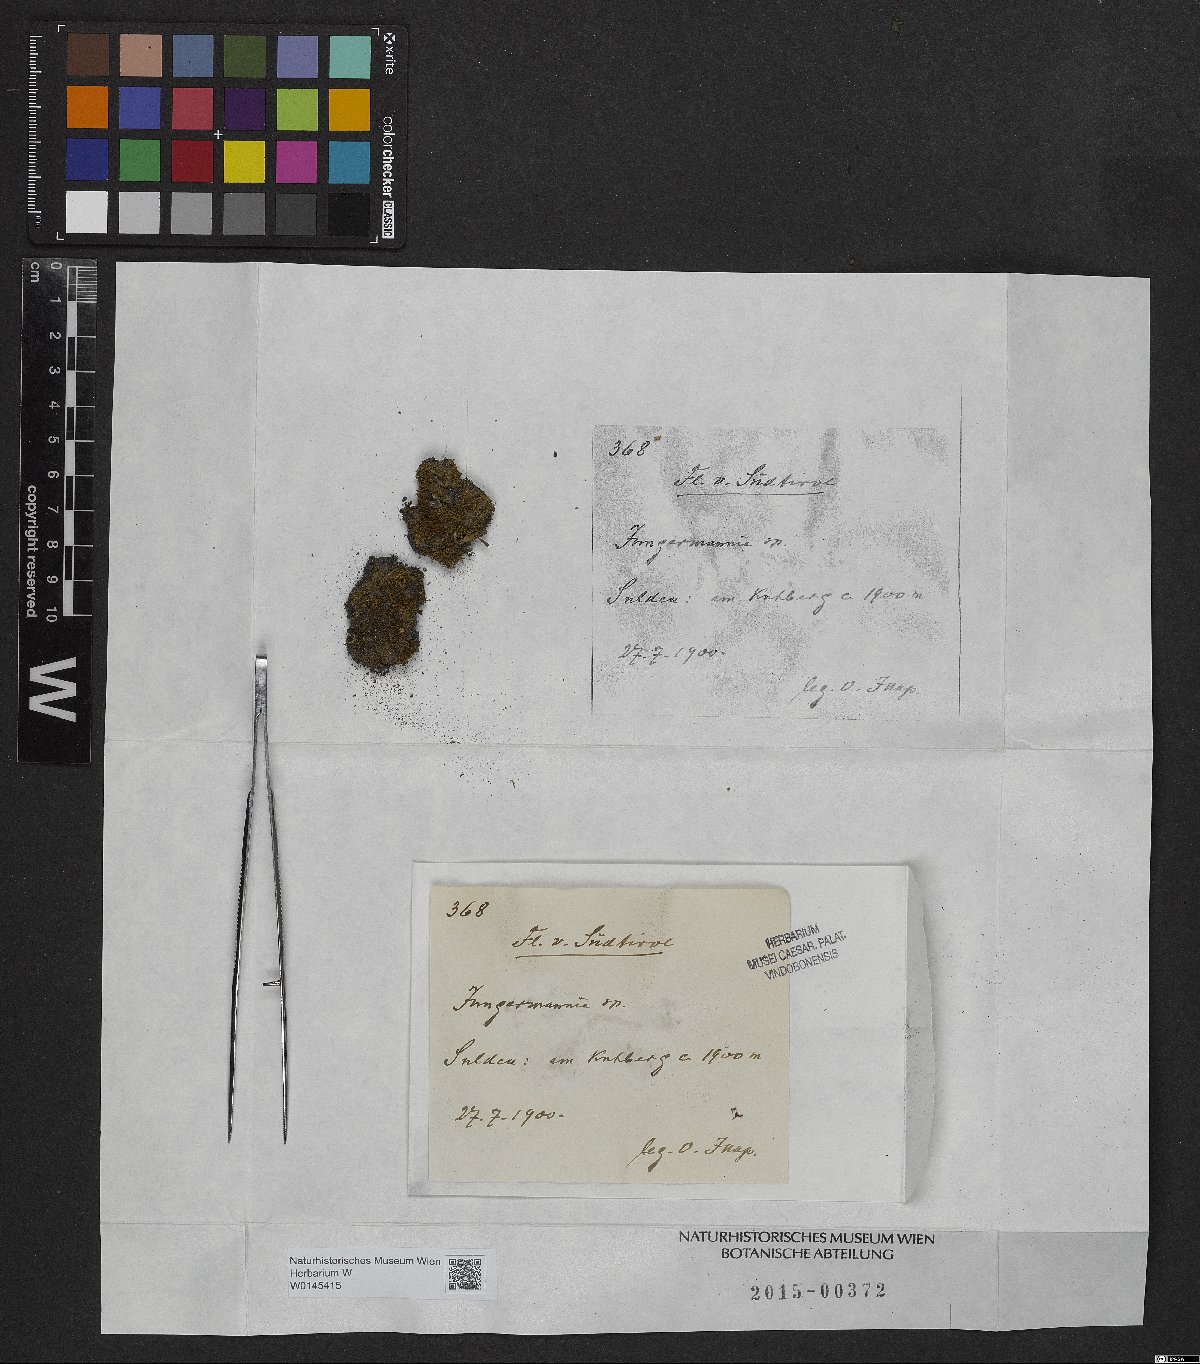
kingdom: Plantae
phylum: Marchantiophyta
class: Jungermanniopsida
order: Jungermanniales
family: Jungermanniaceae
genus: Jungermannia
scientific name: Jungermannia
